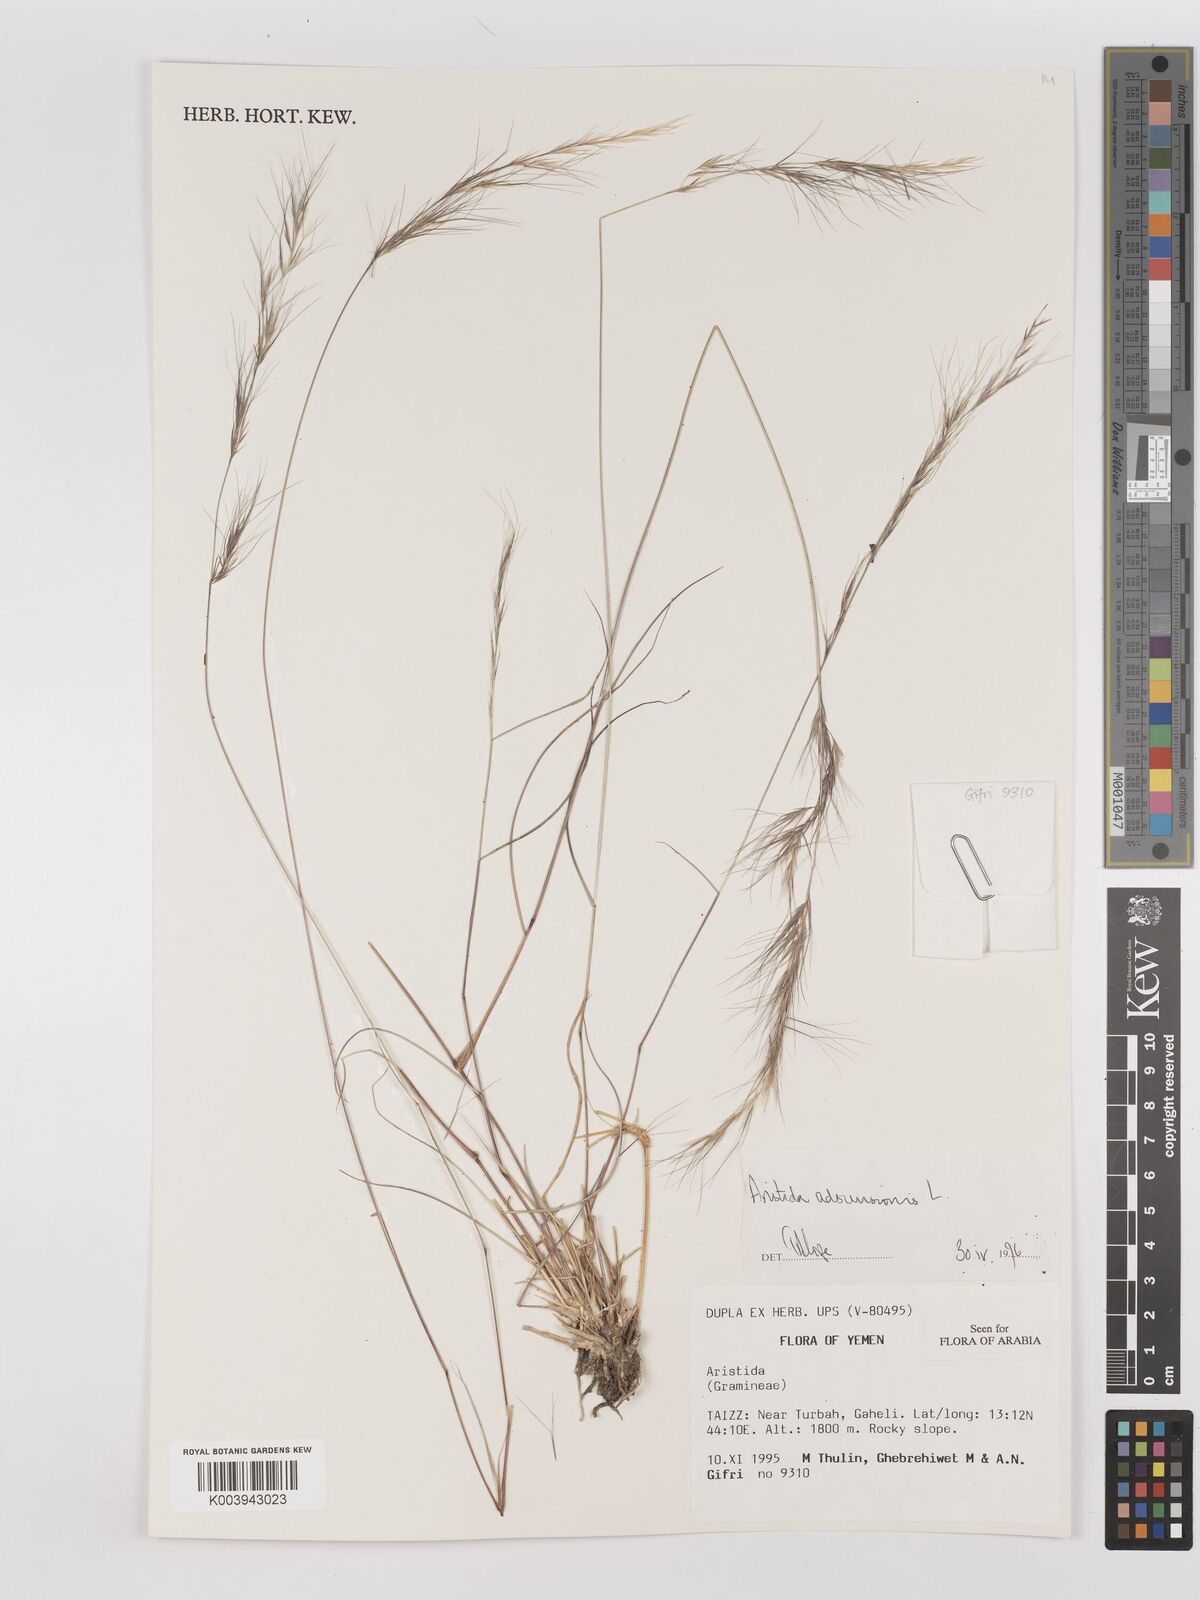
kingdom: Plantae
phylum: Tracheophyta
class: Liliopsida
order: Poales
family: Poaceae
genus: Aristida
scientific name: Aristida adscensionis
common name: Sixweeks threeawn
